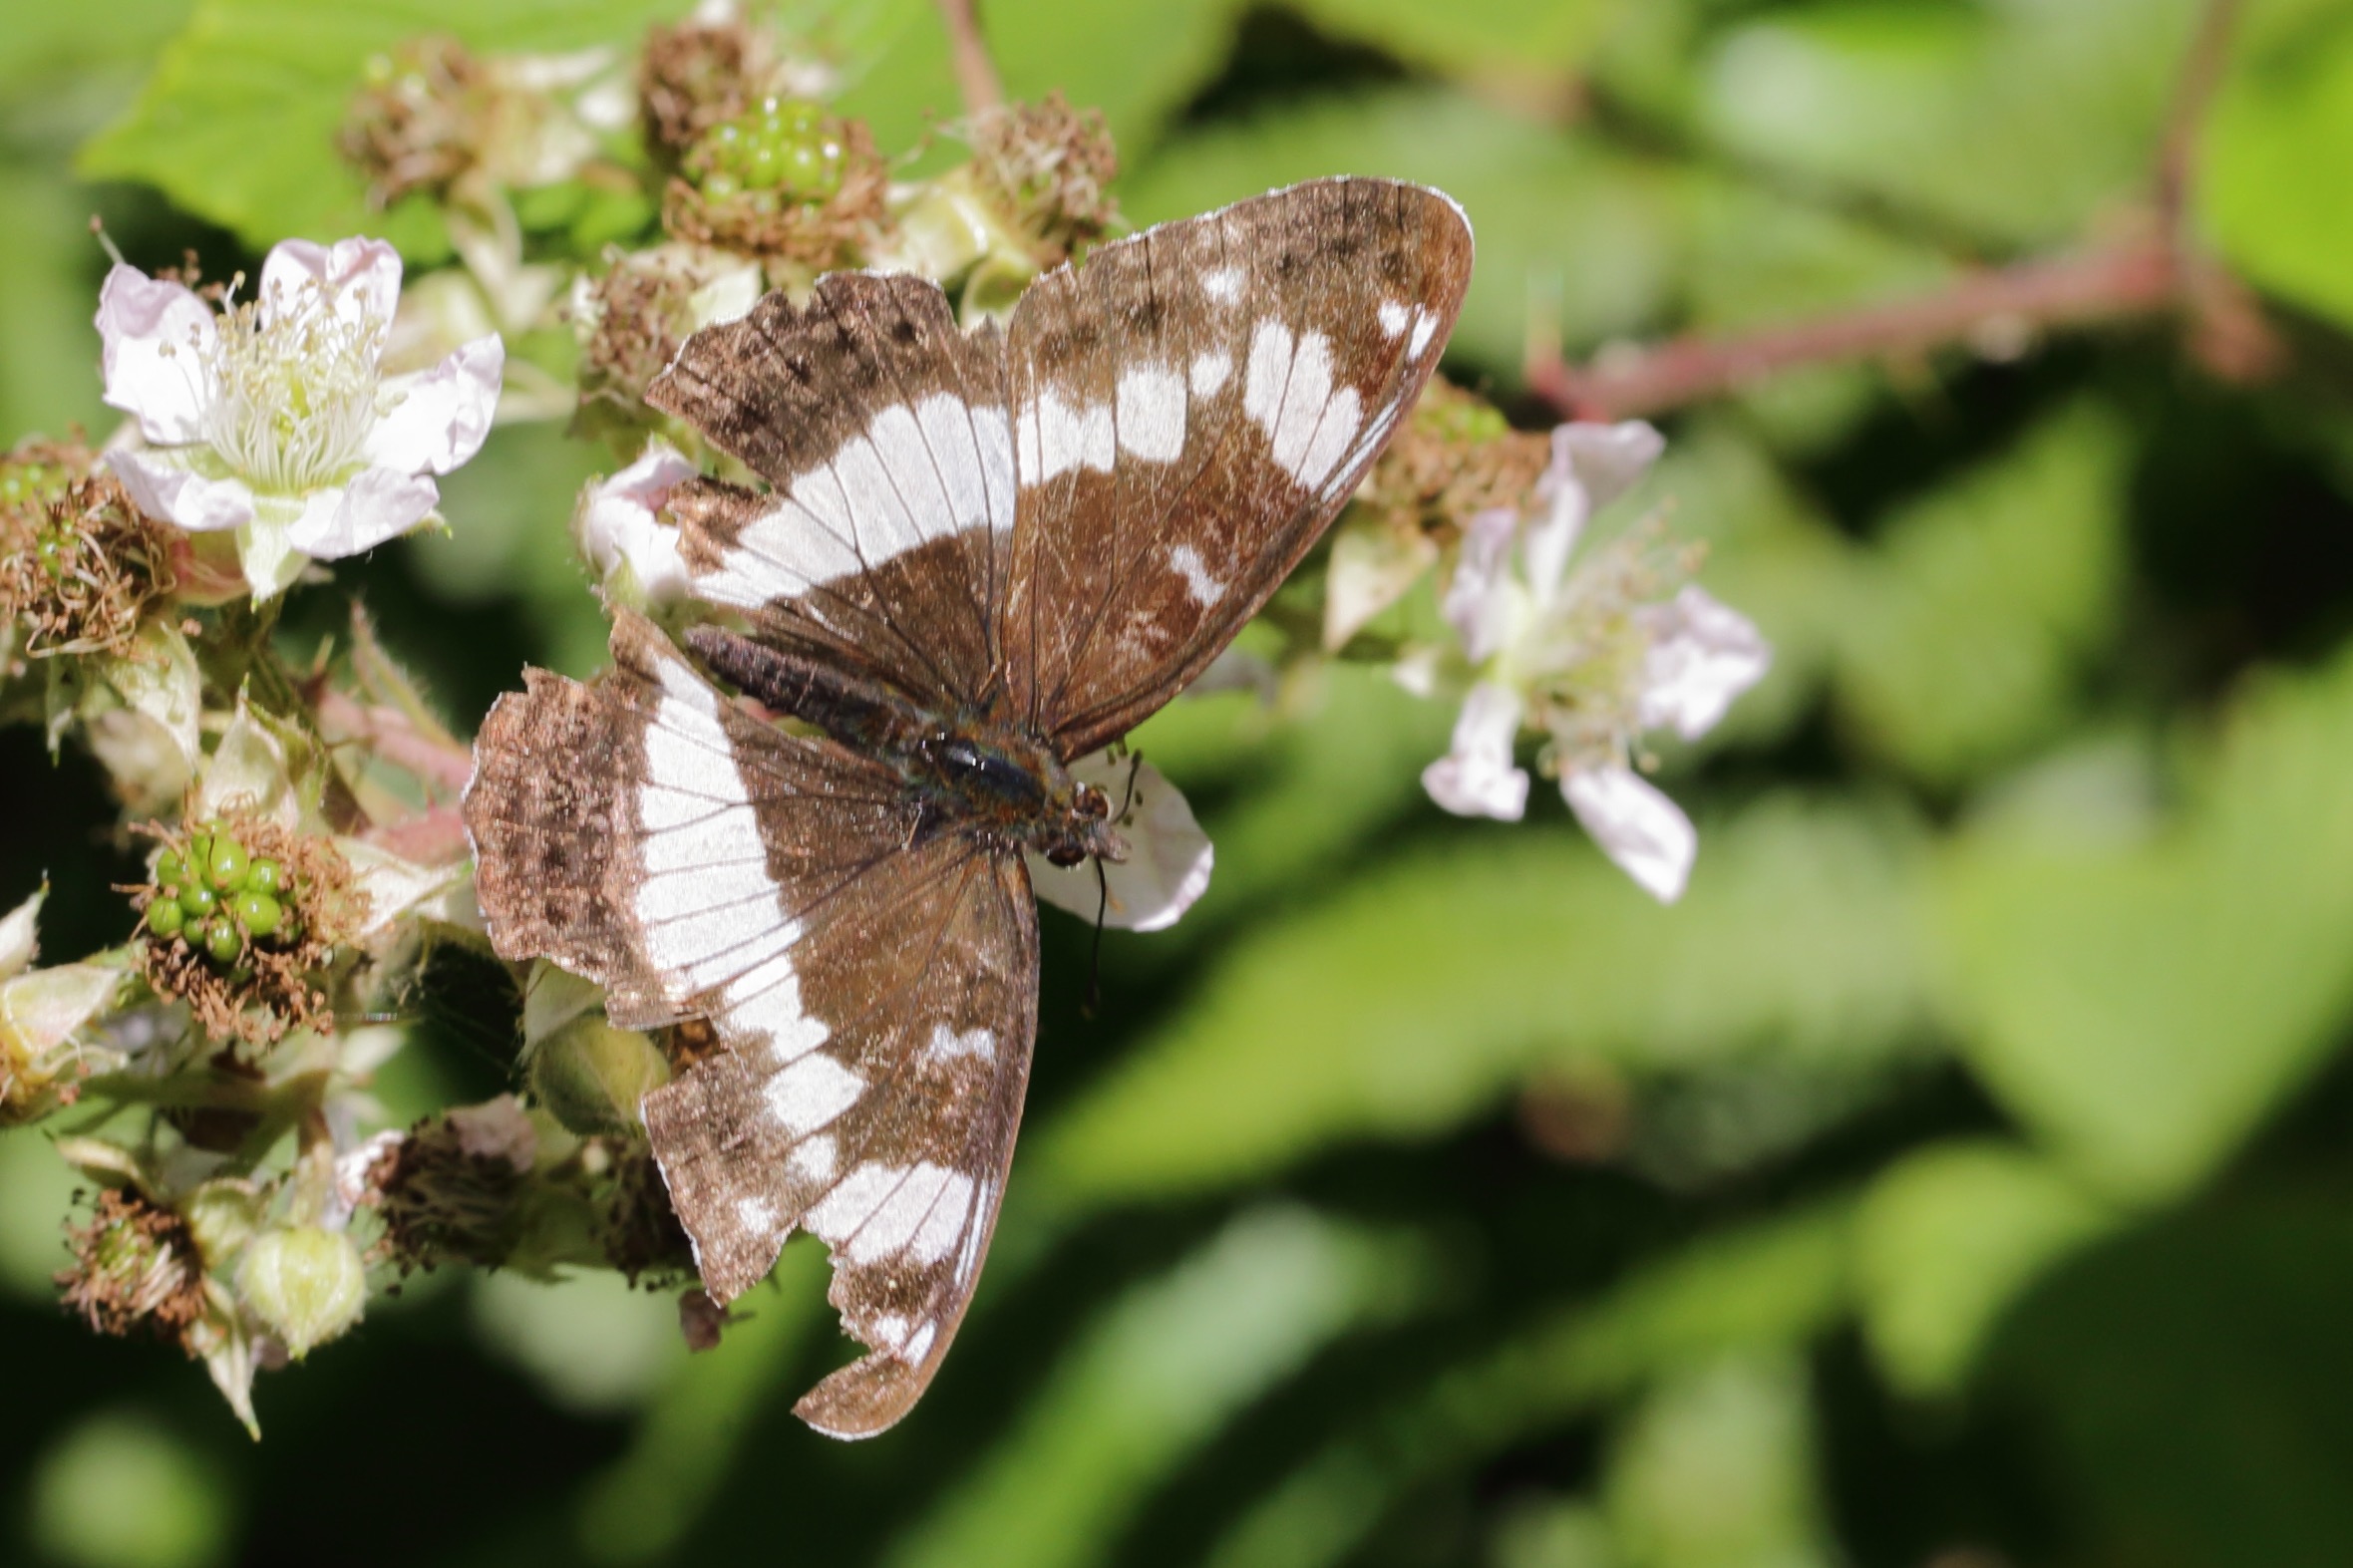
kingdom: Animalia
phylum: Arthropoda
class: Insecta
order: Lepidoptera
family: Nymphalidae
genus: Ladoga
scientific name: Ladoga camilla
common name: Hvid admiral
